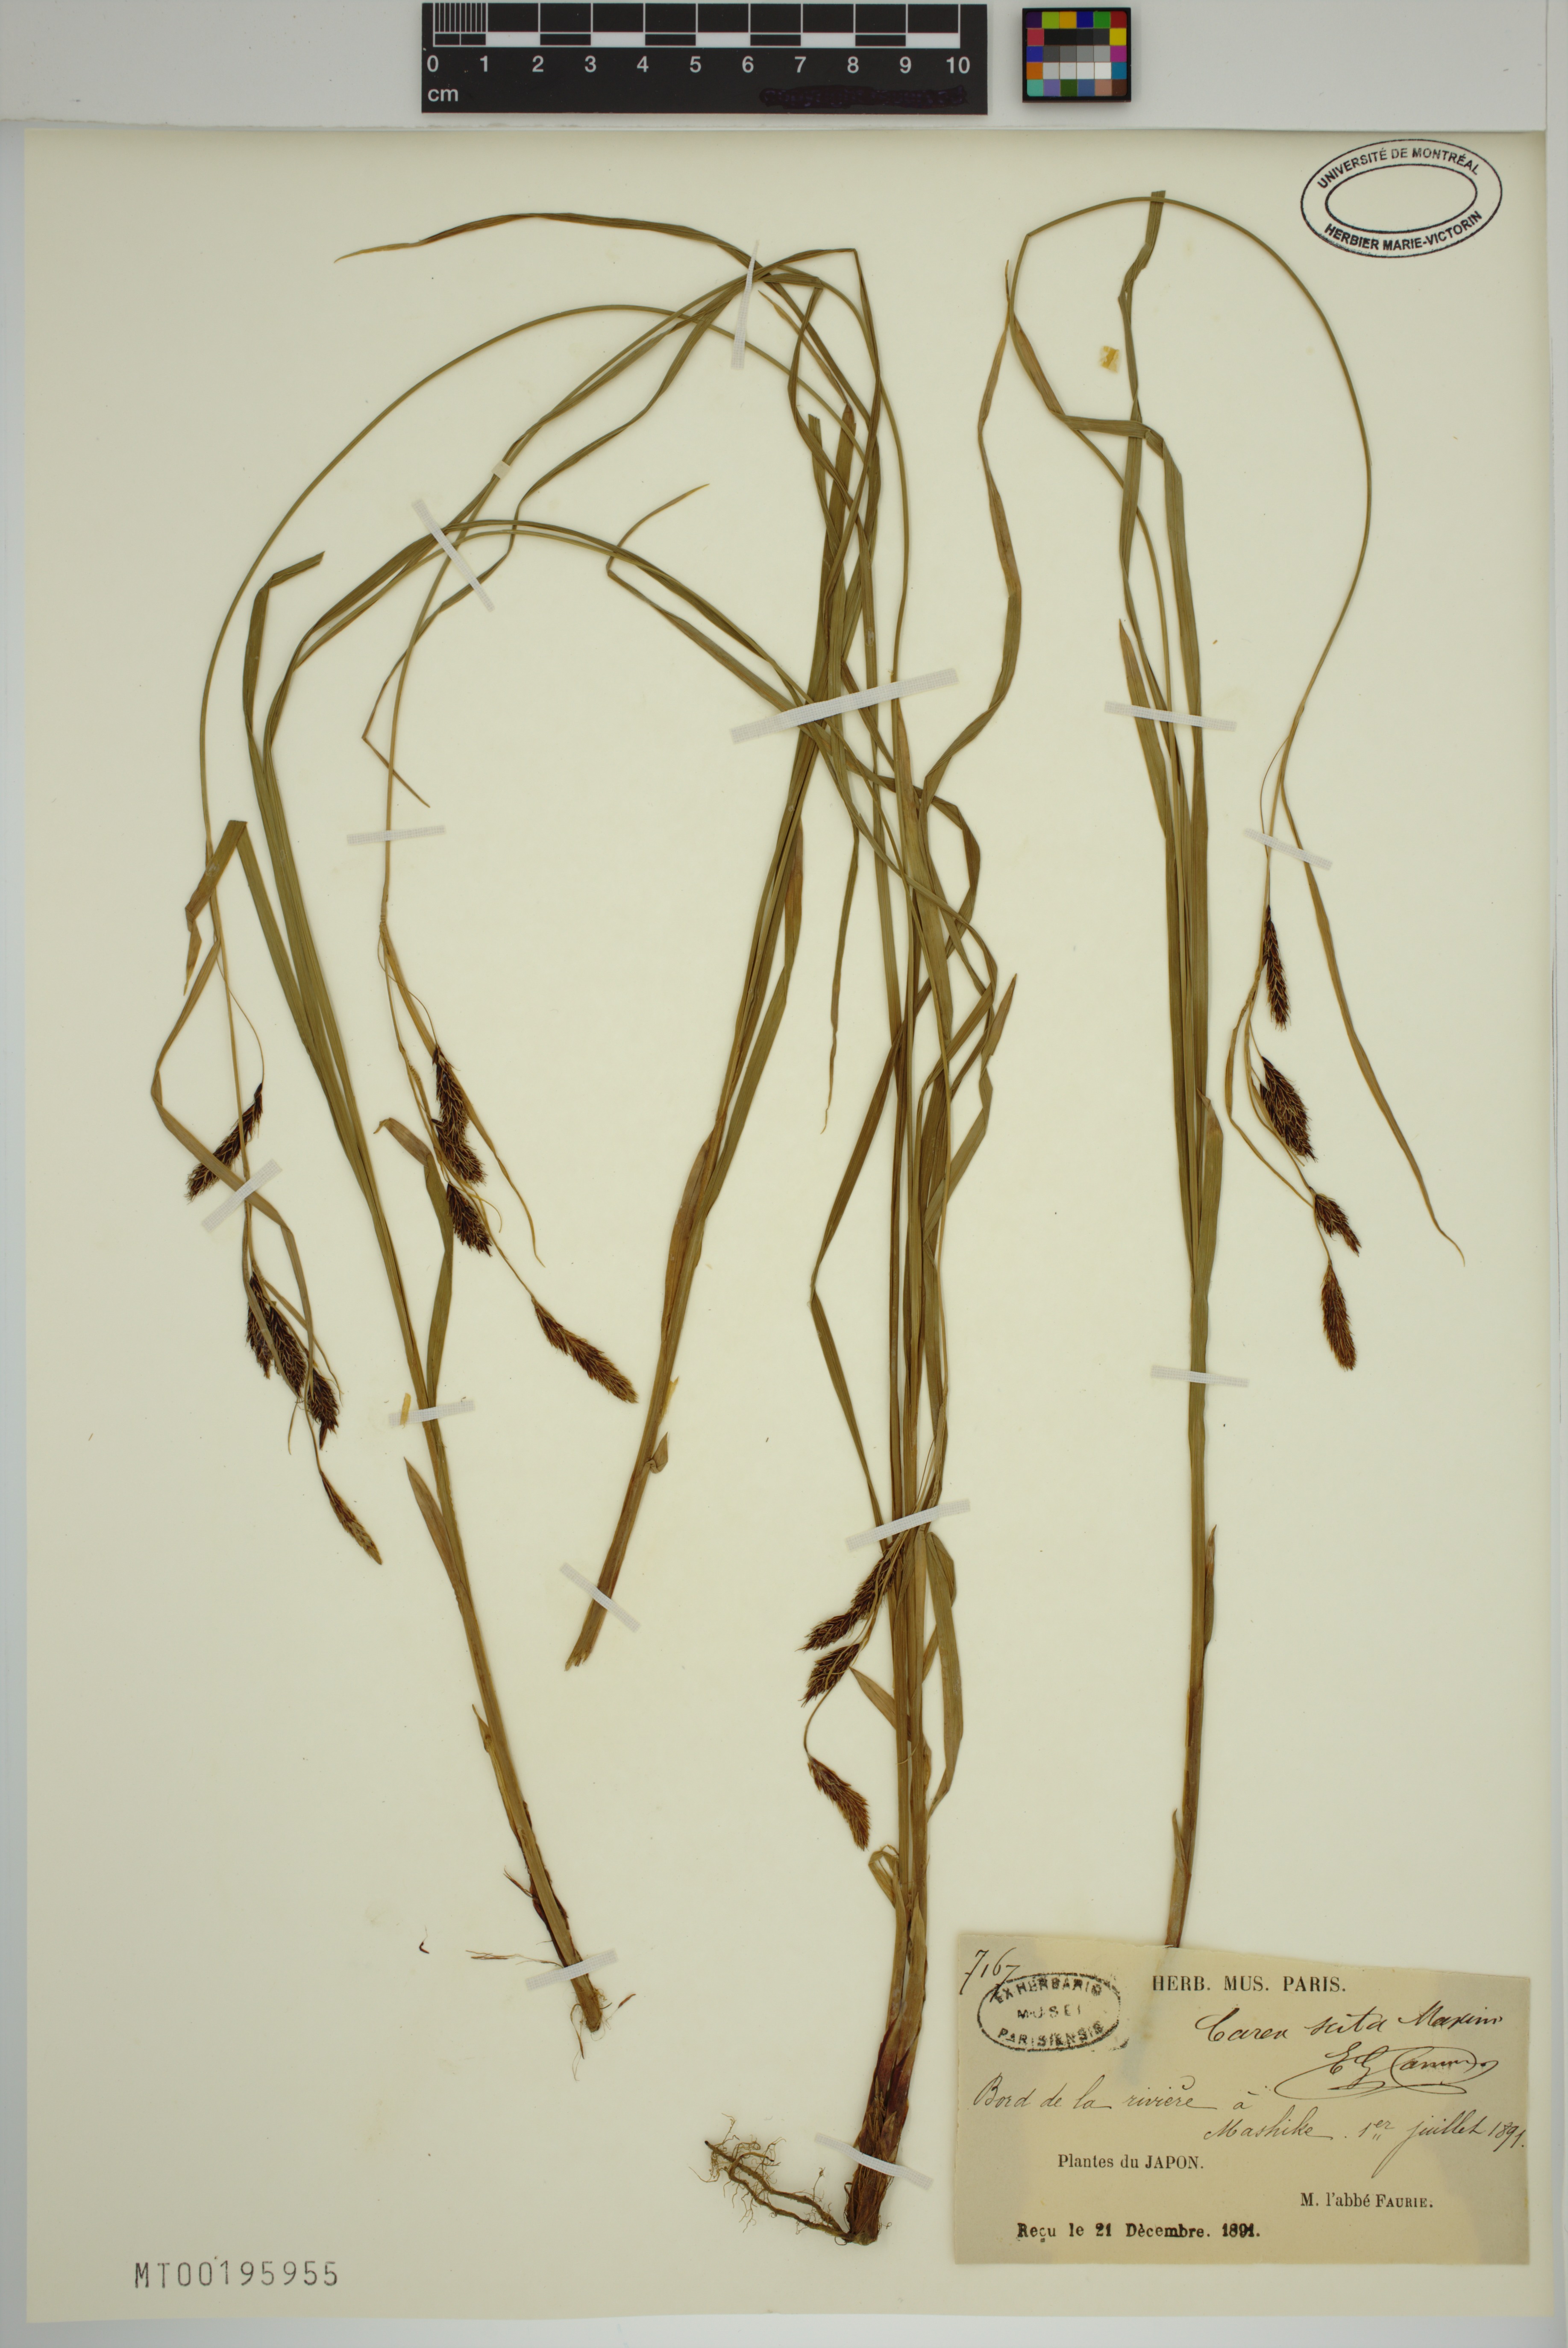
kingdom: Plantae
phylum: Tracheophyta
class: Liliopsida
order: Poales
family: Cyperaceae
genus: Carex
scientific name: Carex scita
